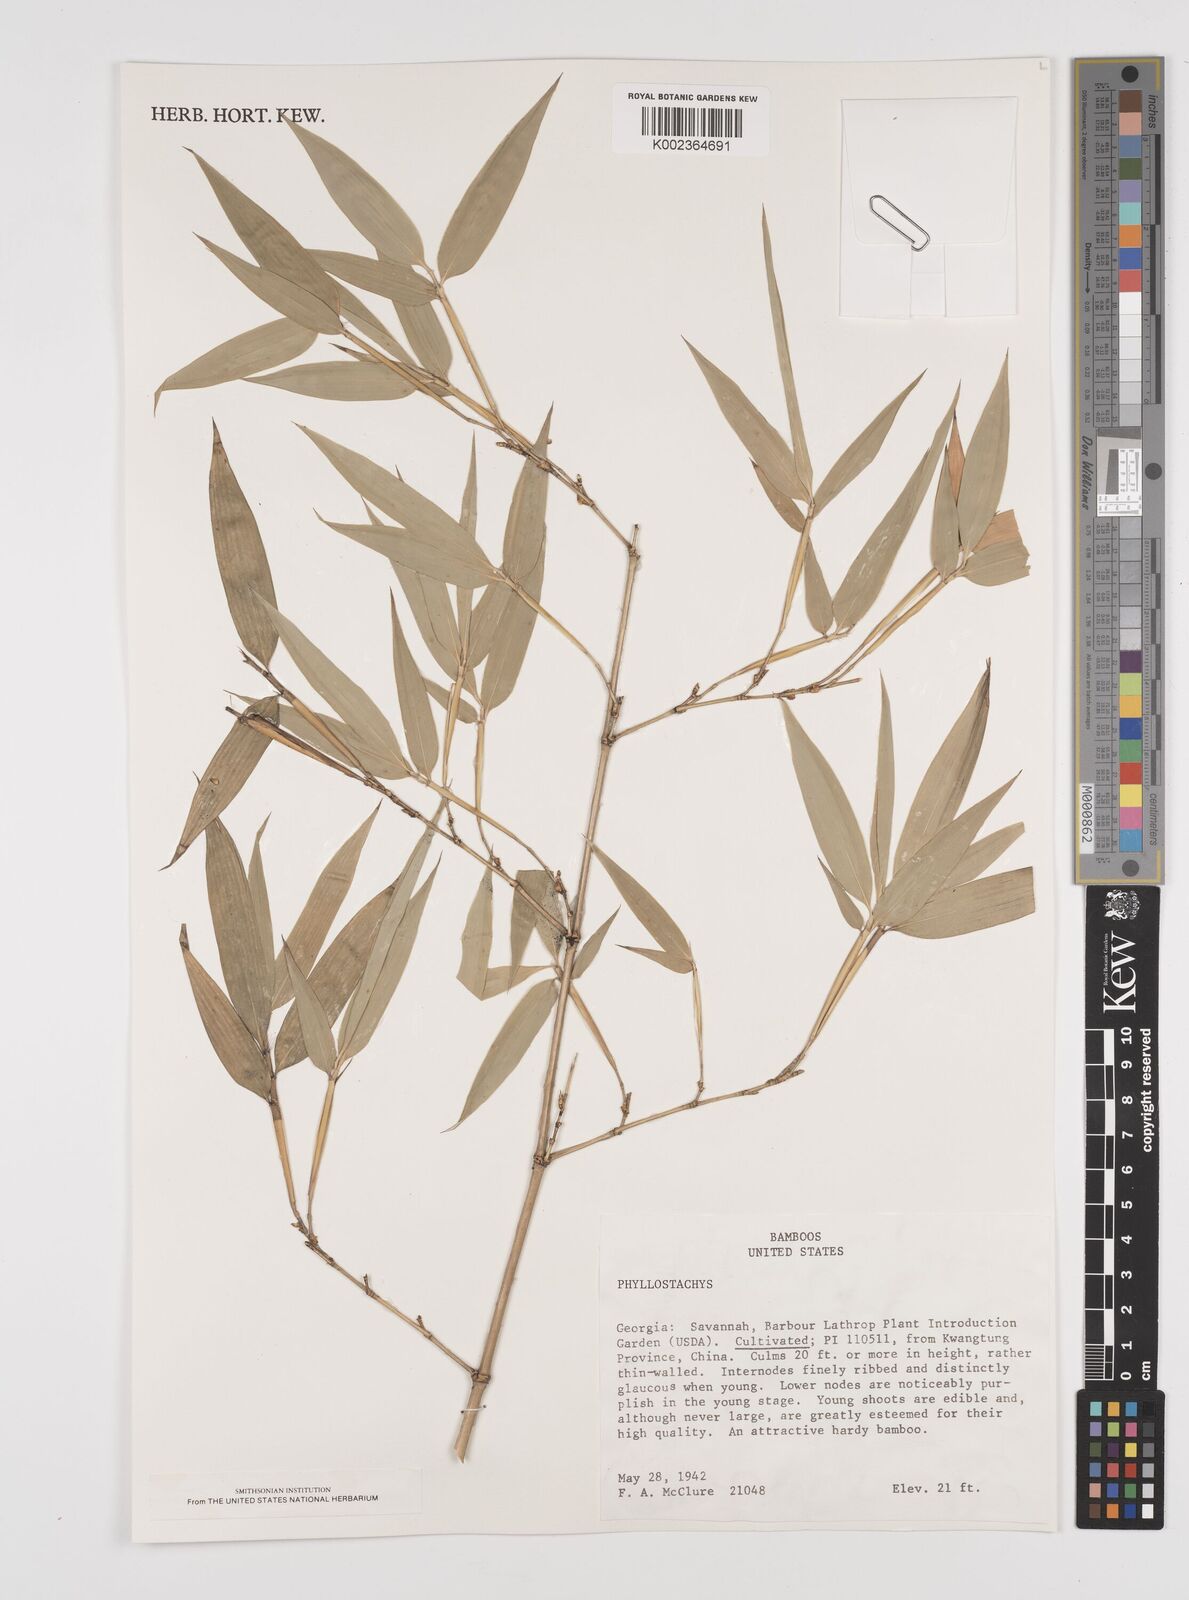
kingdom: Plantae
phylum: Tracheophyta
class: Liliopsida
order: Poales
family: Poaceae
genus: Phyllostachys
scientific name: Phyllostachys
